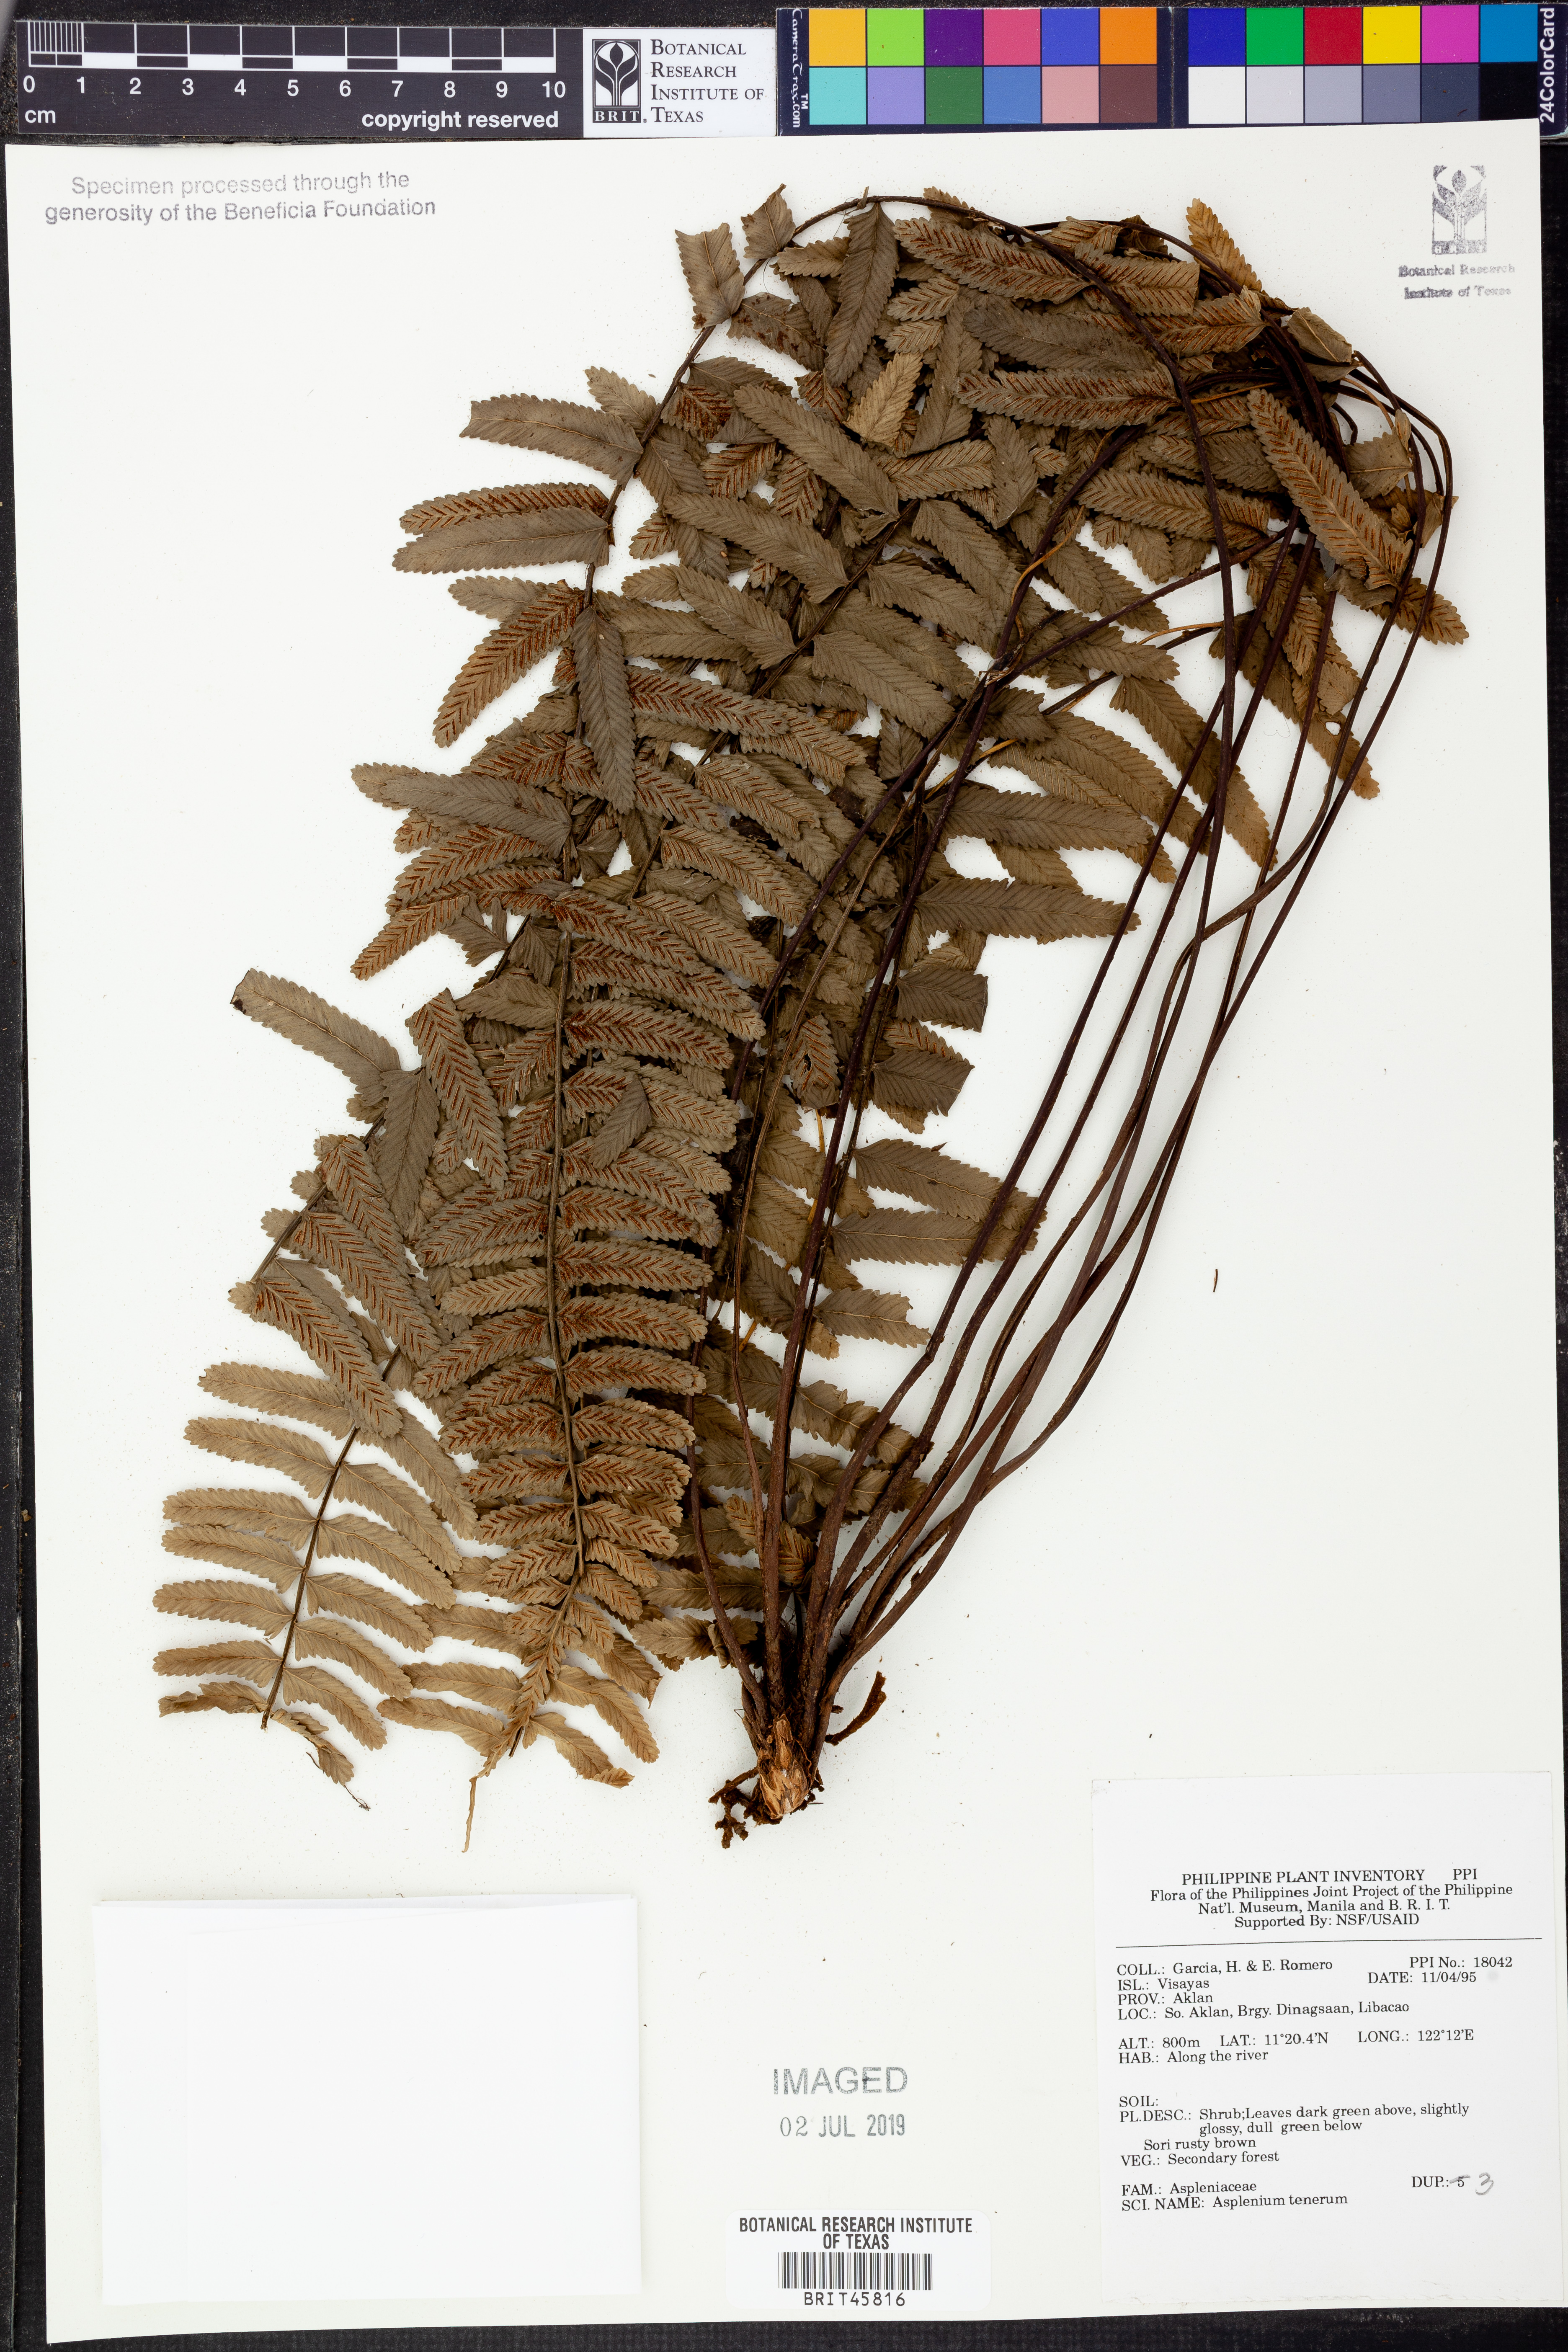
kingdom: Plantae
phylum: Tracheophyta
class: Polypodiopsida
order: Polypodiales
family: Aspleniaceae
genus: Asplenium
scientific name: Asplenium auriculatum
